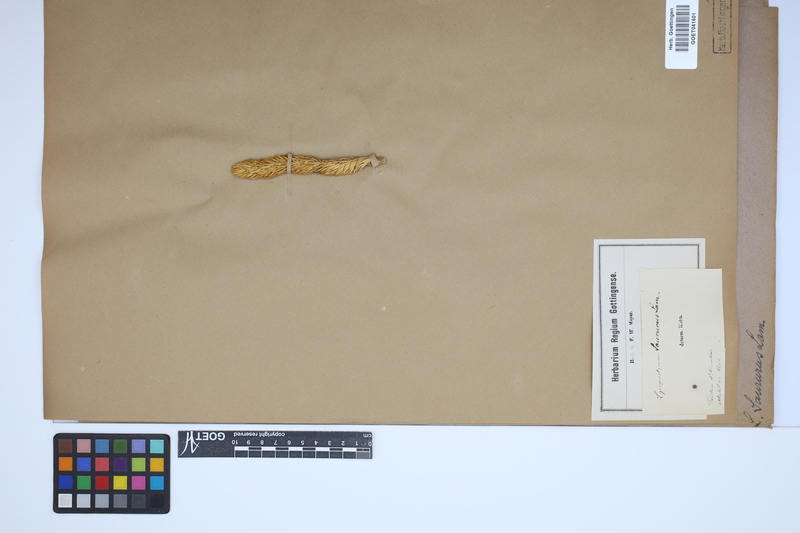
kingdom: Plantae
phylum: Tracheophyta
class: Lycopodiopsida
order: Lycopodiales
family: Lycopodiaceae
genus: Phlegmariurus
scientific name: Phlegmariurus saururus
